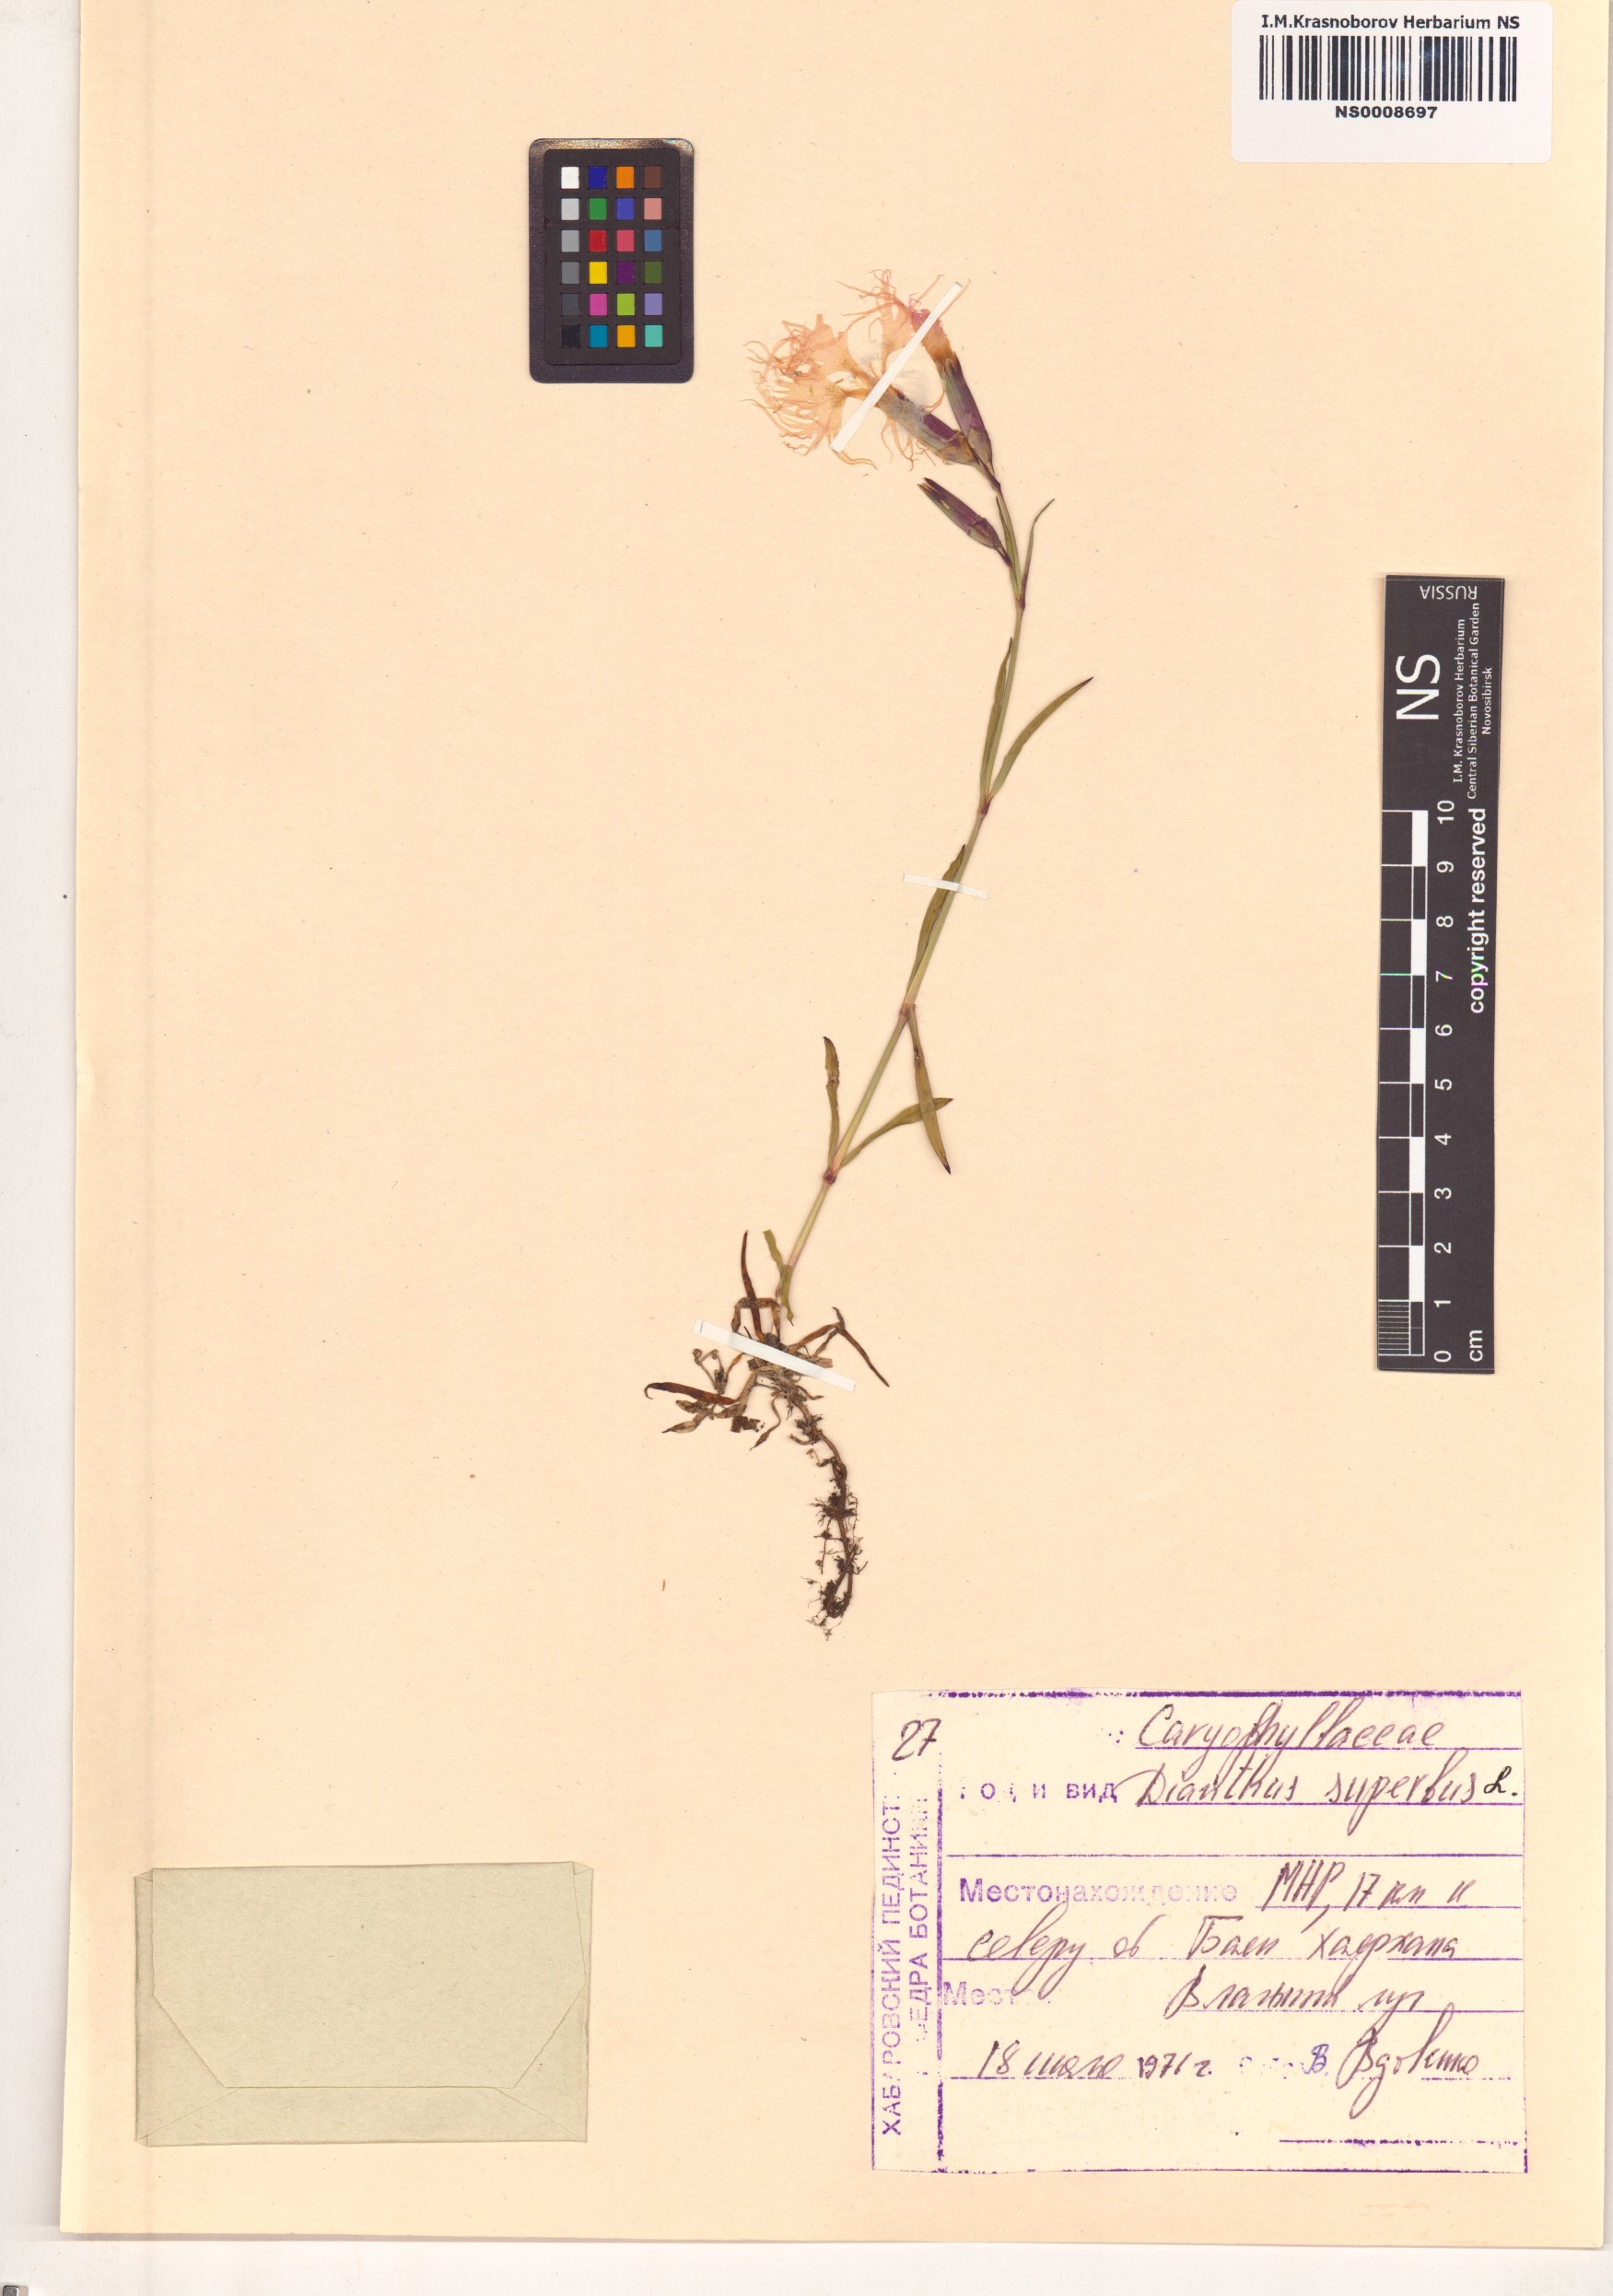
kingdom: Plantae
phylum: Tracheophyta
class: Magnoliopsida
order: Caryophyllales
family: Caryophyllaceae
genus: Dianthus
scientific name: Dianthus superbus
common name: Fringed pink
